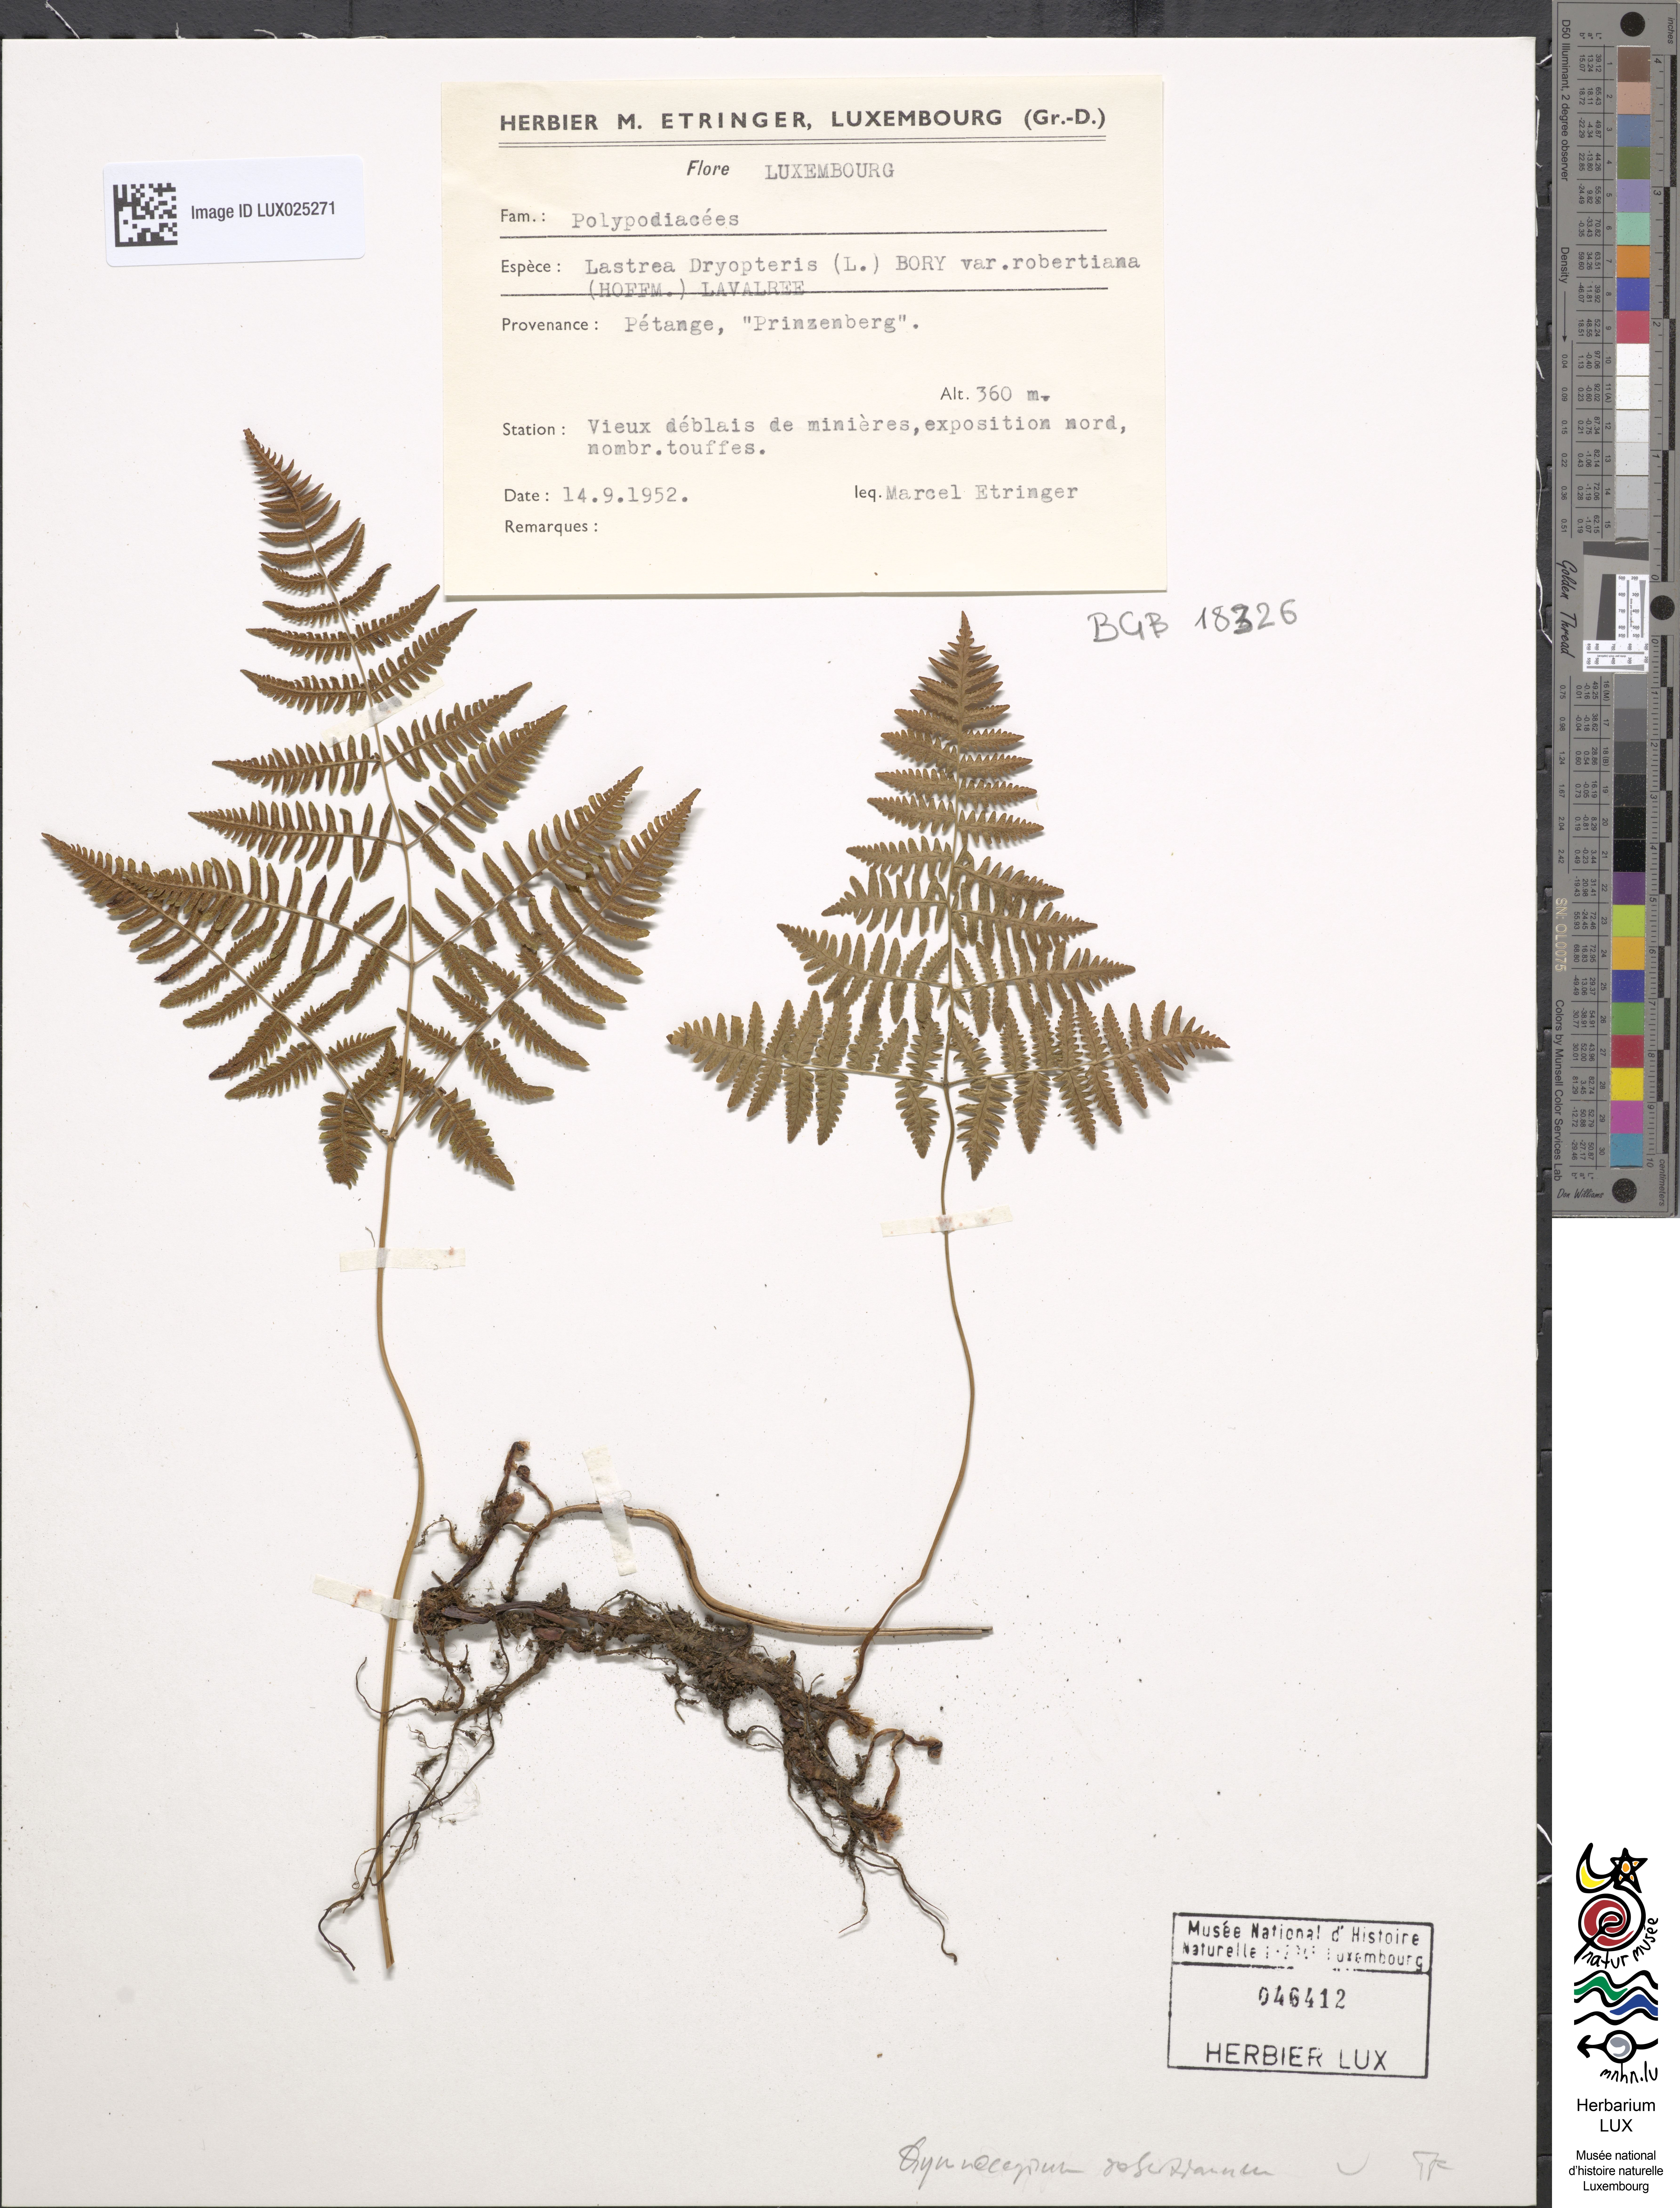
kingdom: Plantae
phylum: Tracheophyta
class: Polypodiopsida
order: Polypodiales
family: Cystopteridaceae
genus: Gymnocarpium
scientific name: Gymnocarpium robertianum
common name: Limestone fern
